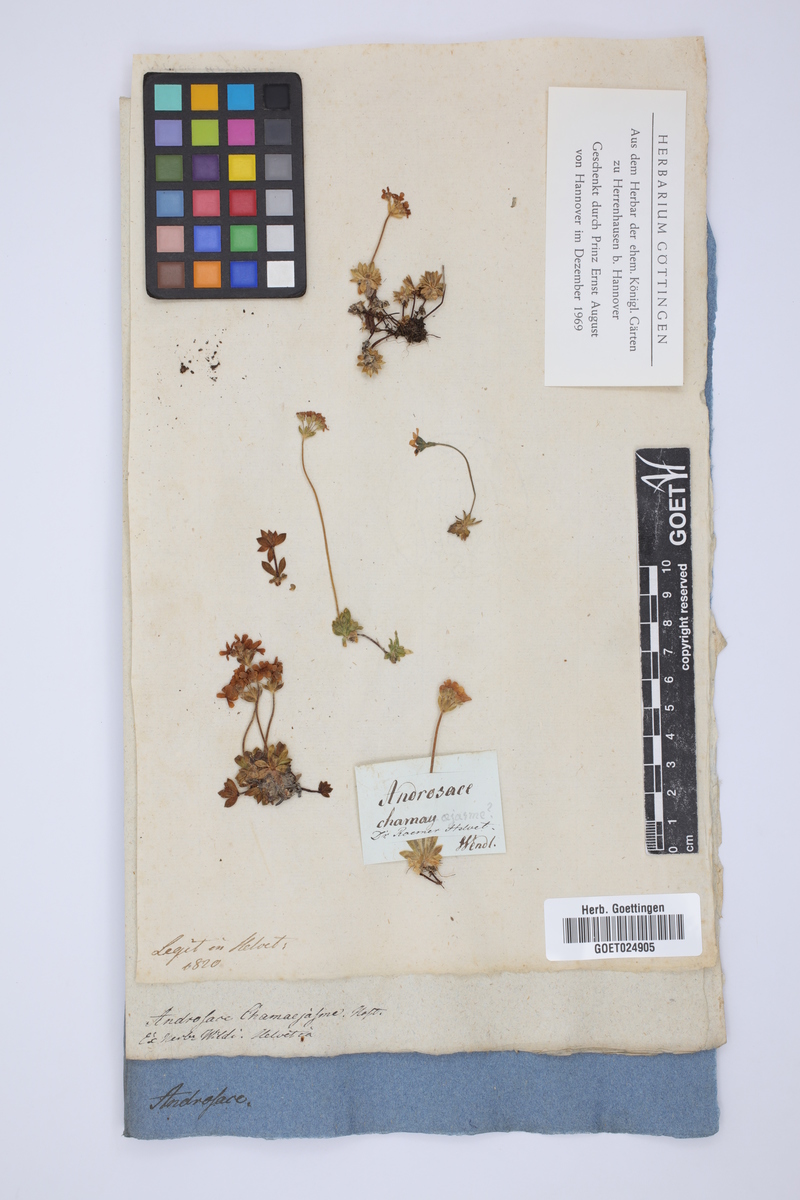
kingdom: Plantae
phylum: Tracheophyta
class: Magnoliopsida
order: Ericales
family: Primulaceae
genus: Androsace
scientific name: Androsace chamaejasme
